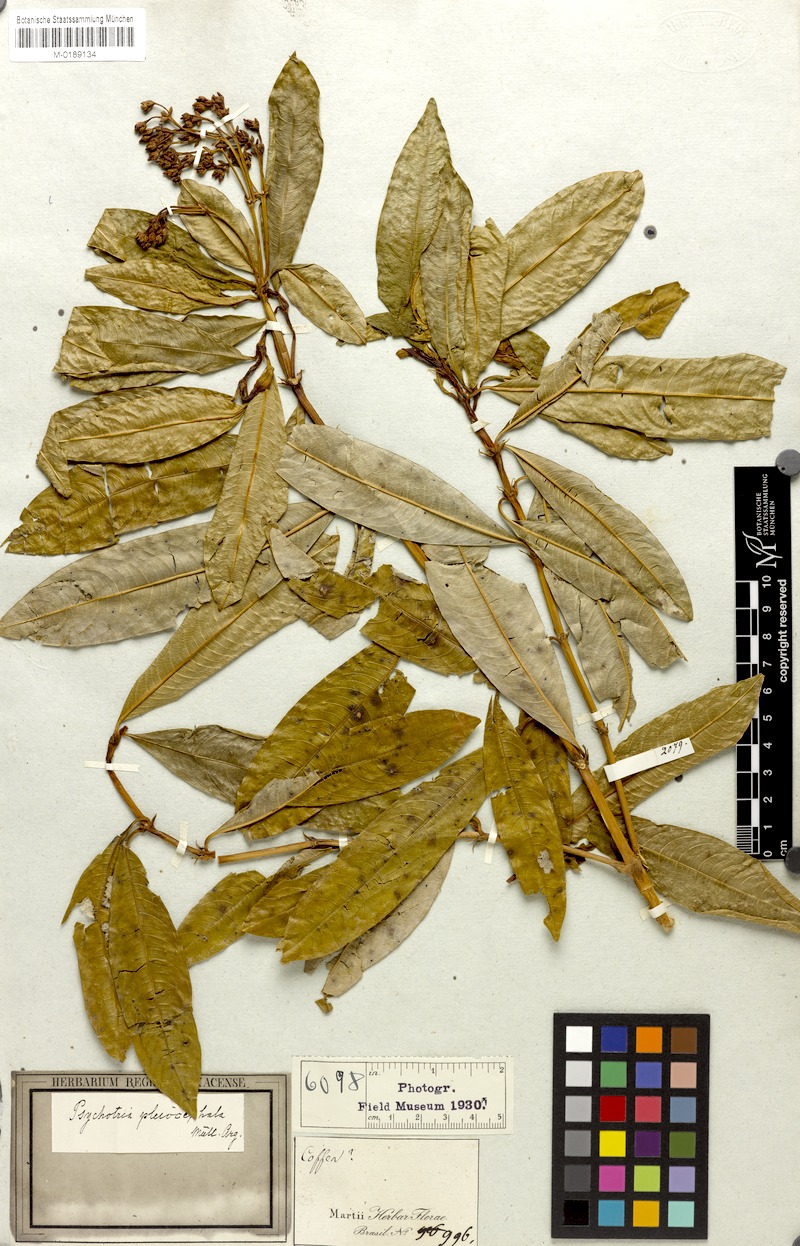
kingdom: Plantae
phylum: Tracheophyta
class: Magnoliopsida
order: Gentianales
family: Rubiaceae
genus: Palicourea
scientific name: Palicourea pleiocephala
